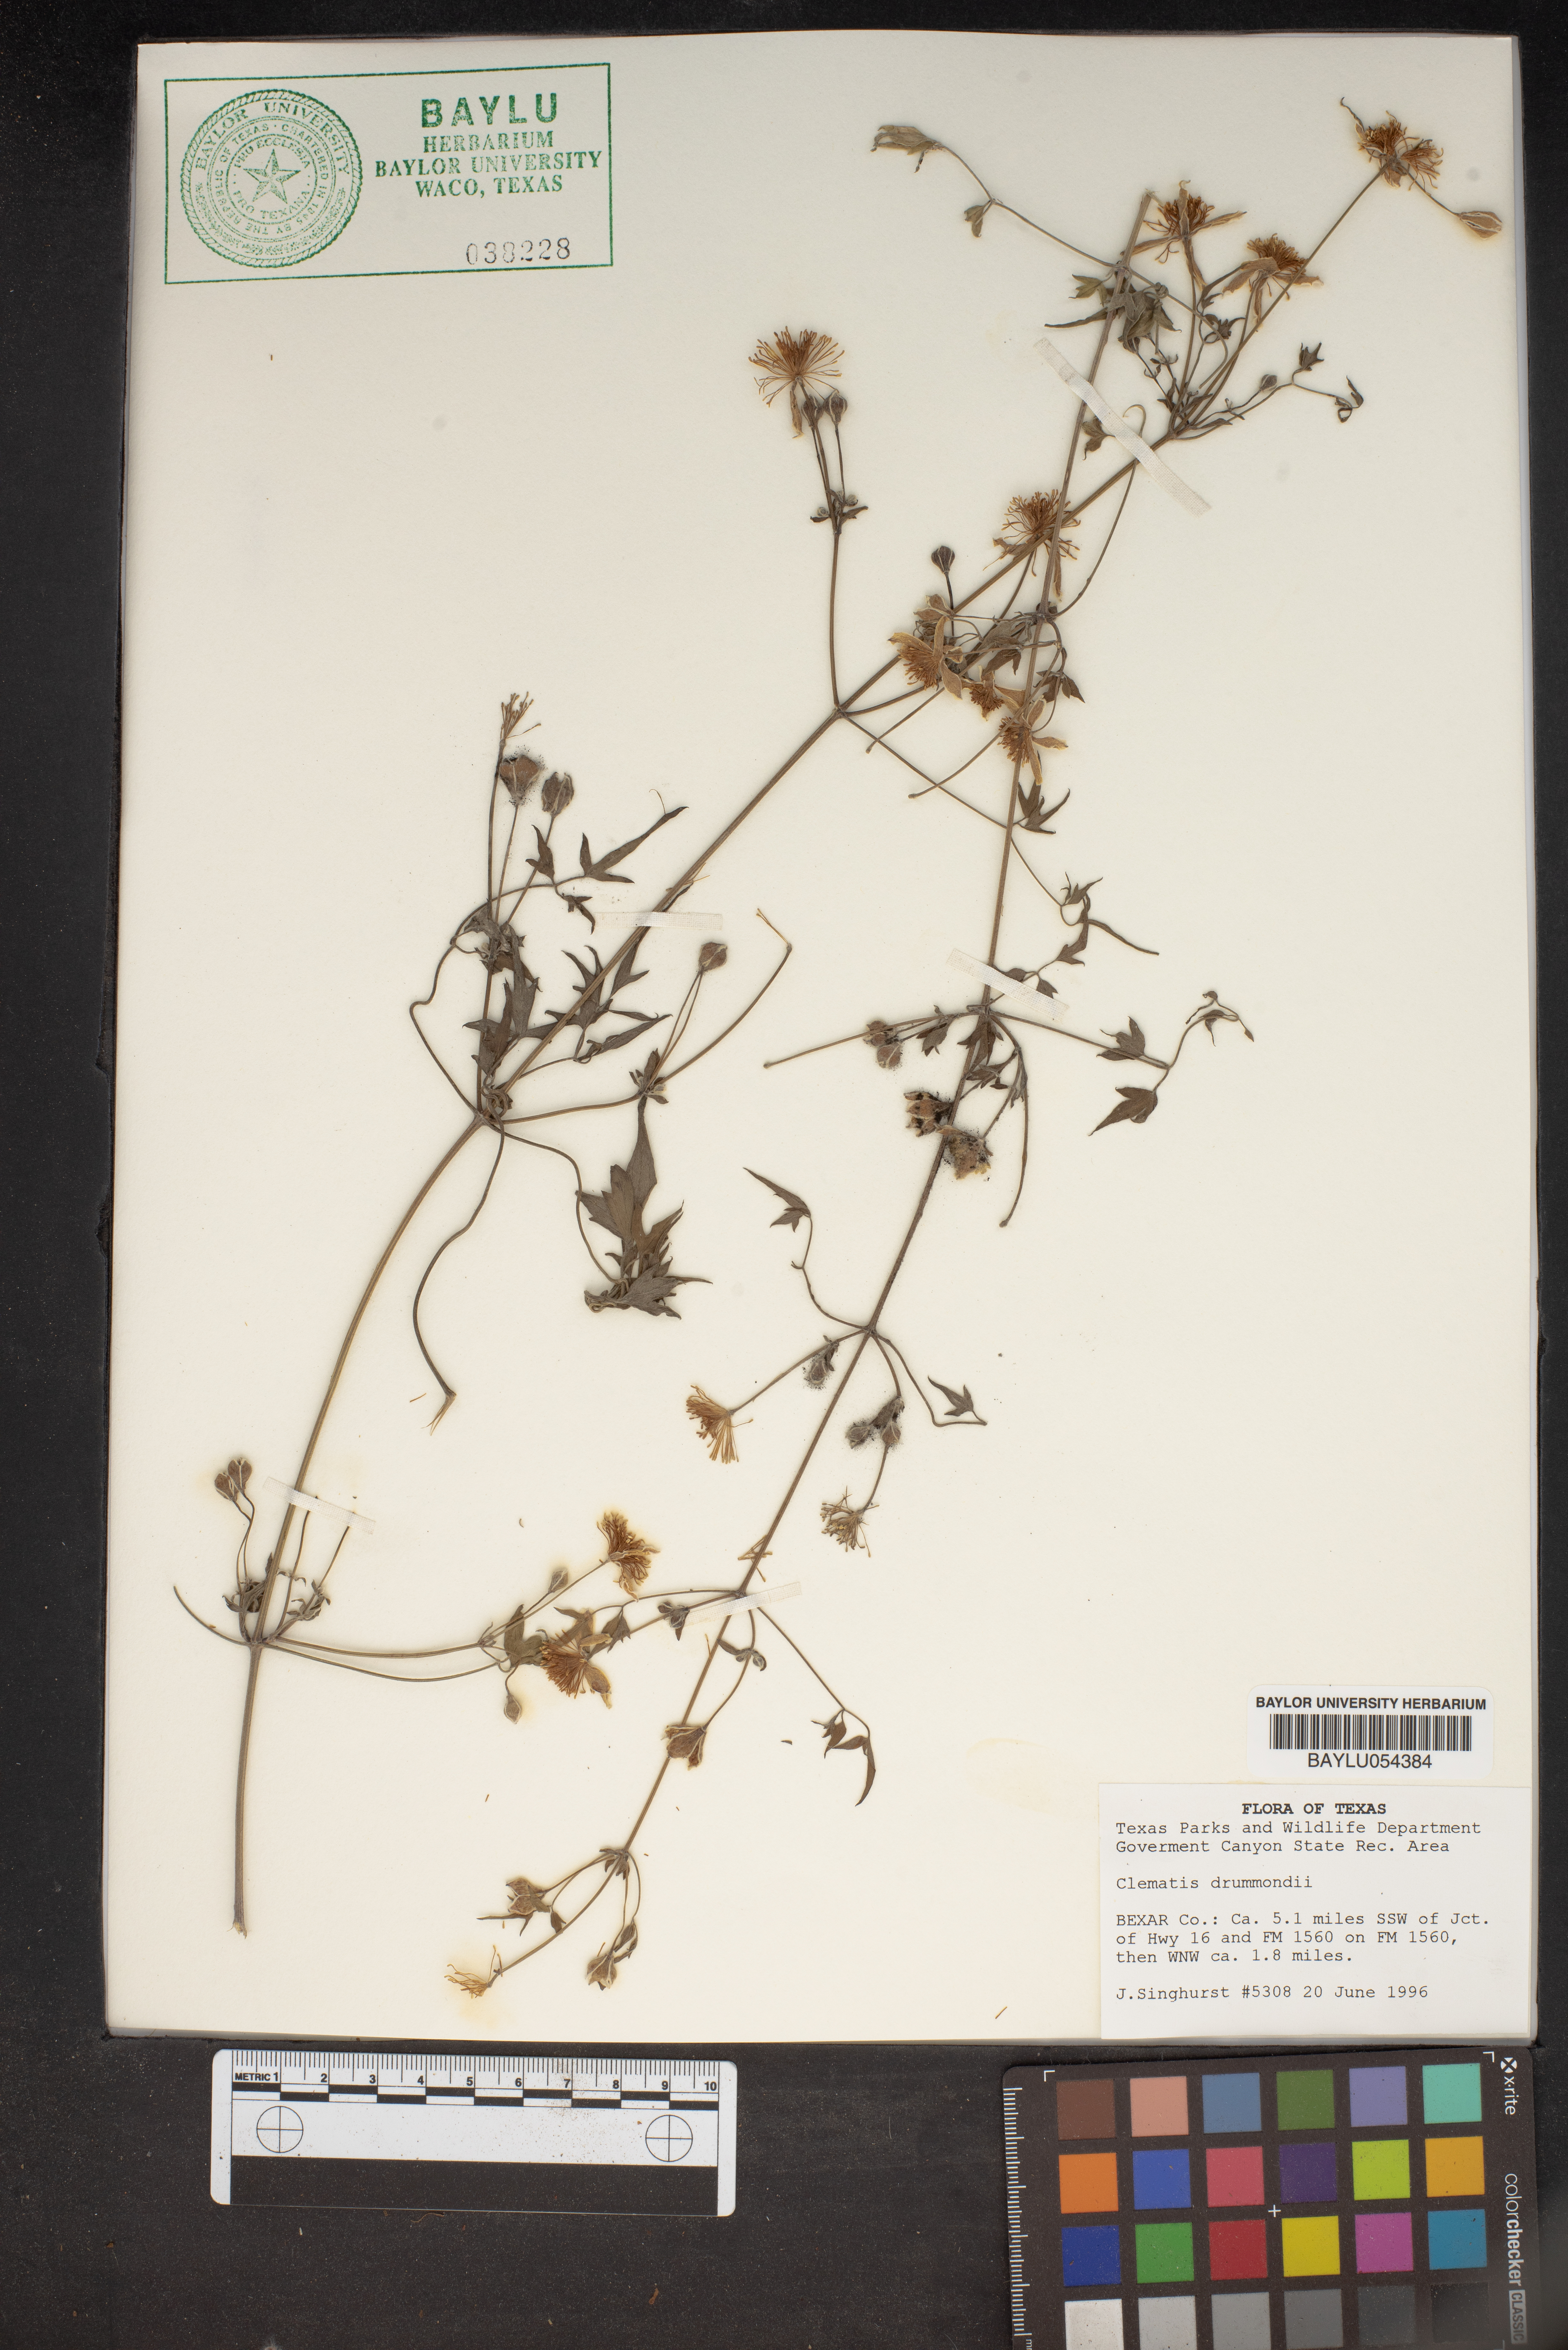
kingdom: Plantae
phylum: Tracheophyta
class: Magnoliopsida
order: Ranunculales
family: Ranunculaceae
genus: Clematis
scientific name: Clematis drummondii
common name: Texas virgin's bower
